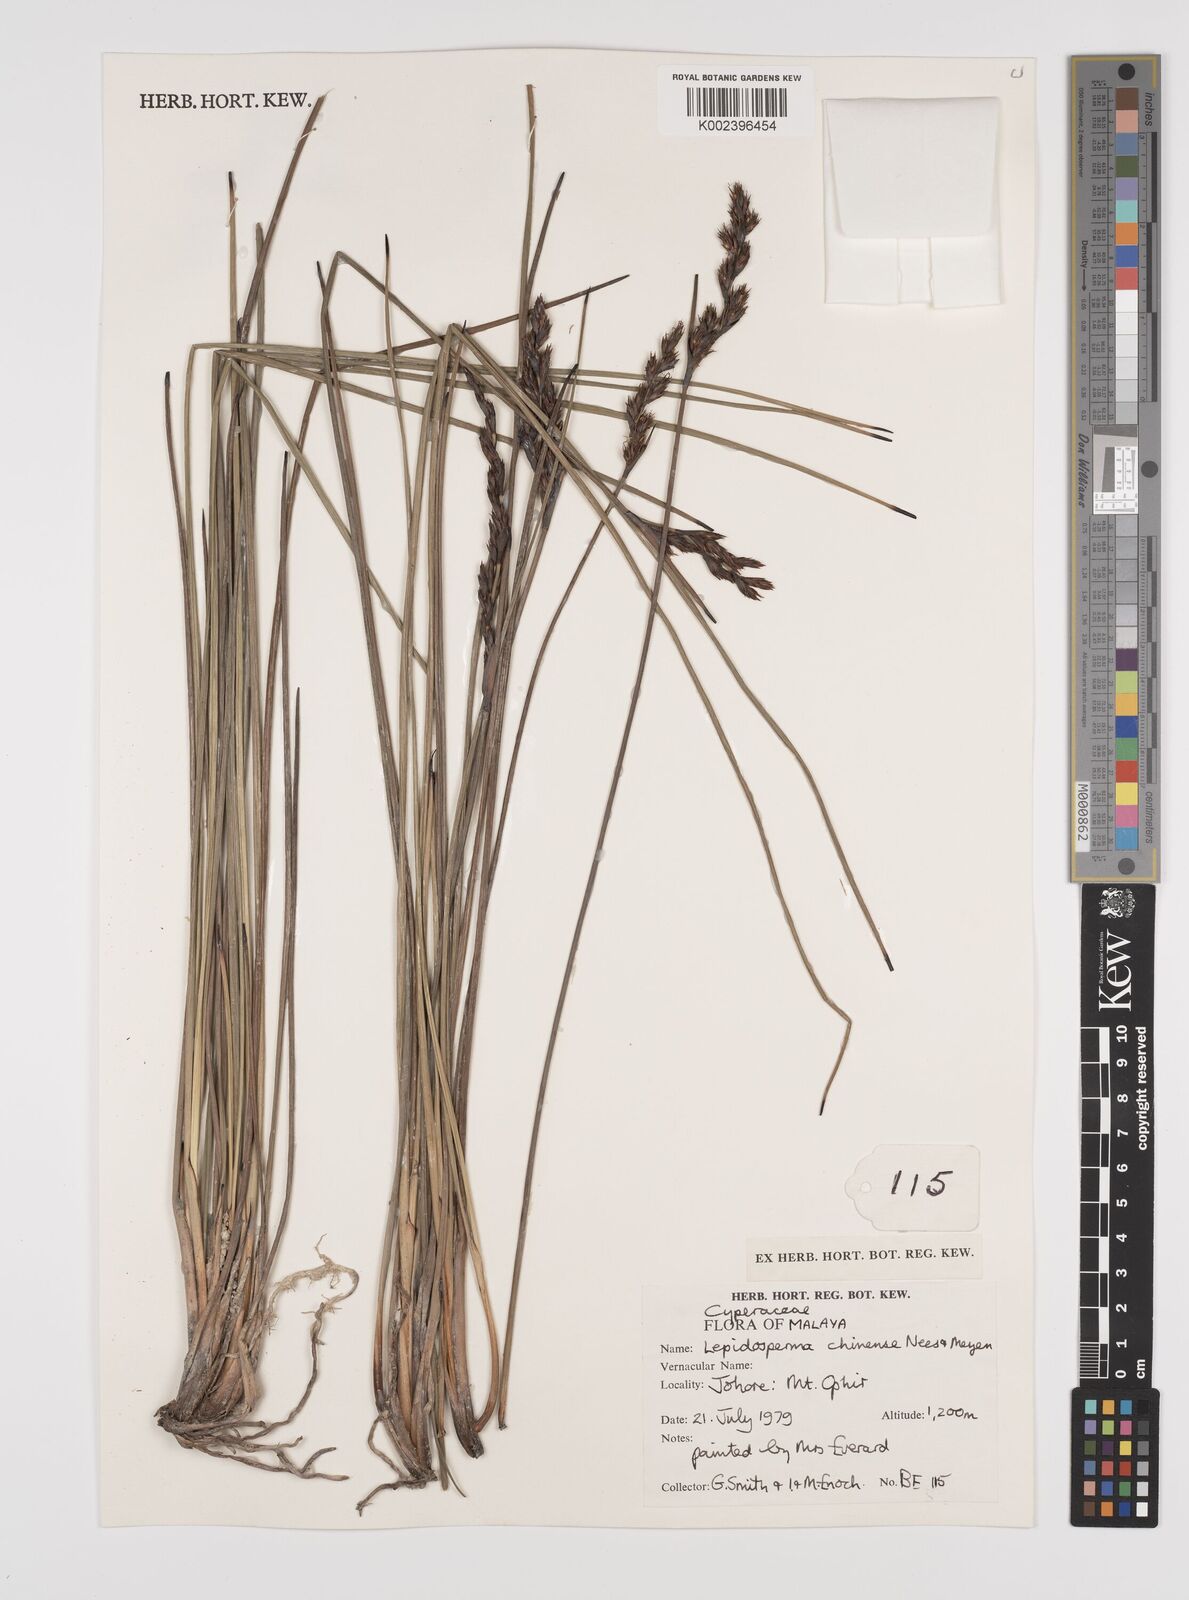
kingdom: Plantae
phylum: Tracheophyta
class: Liliopsida
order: Poales
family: Cyperaceae
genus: Lepidosperma
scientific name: Lepidosperma chinense
